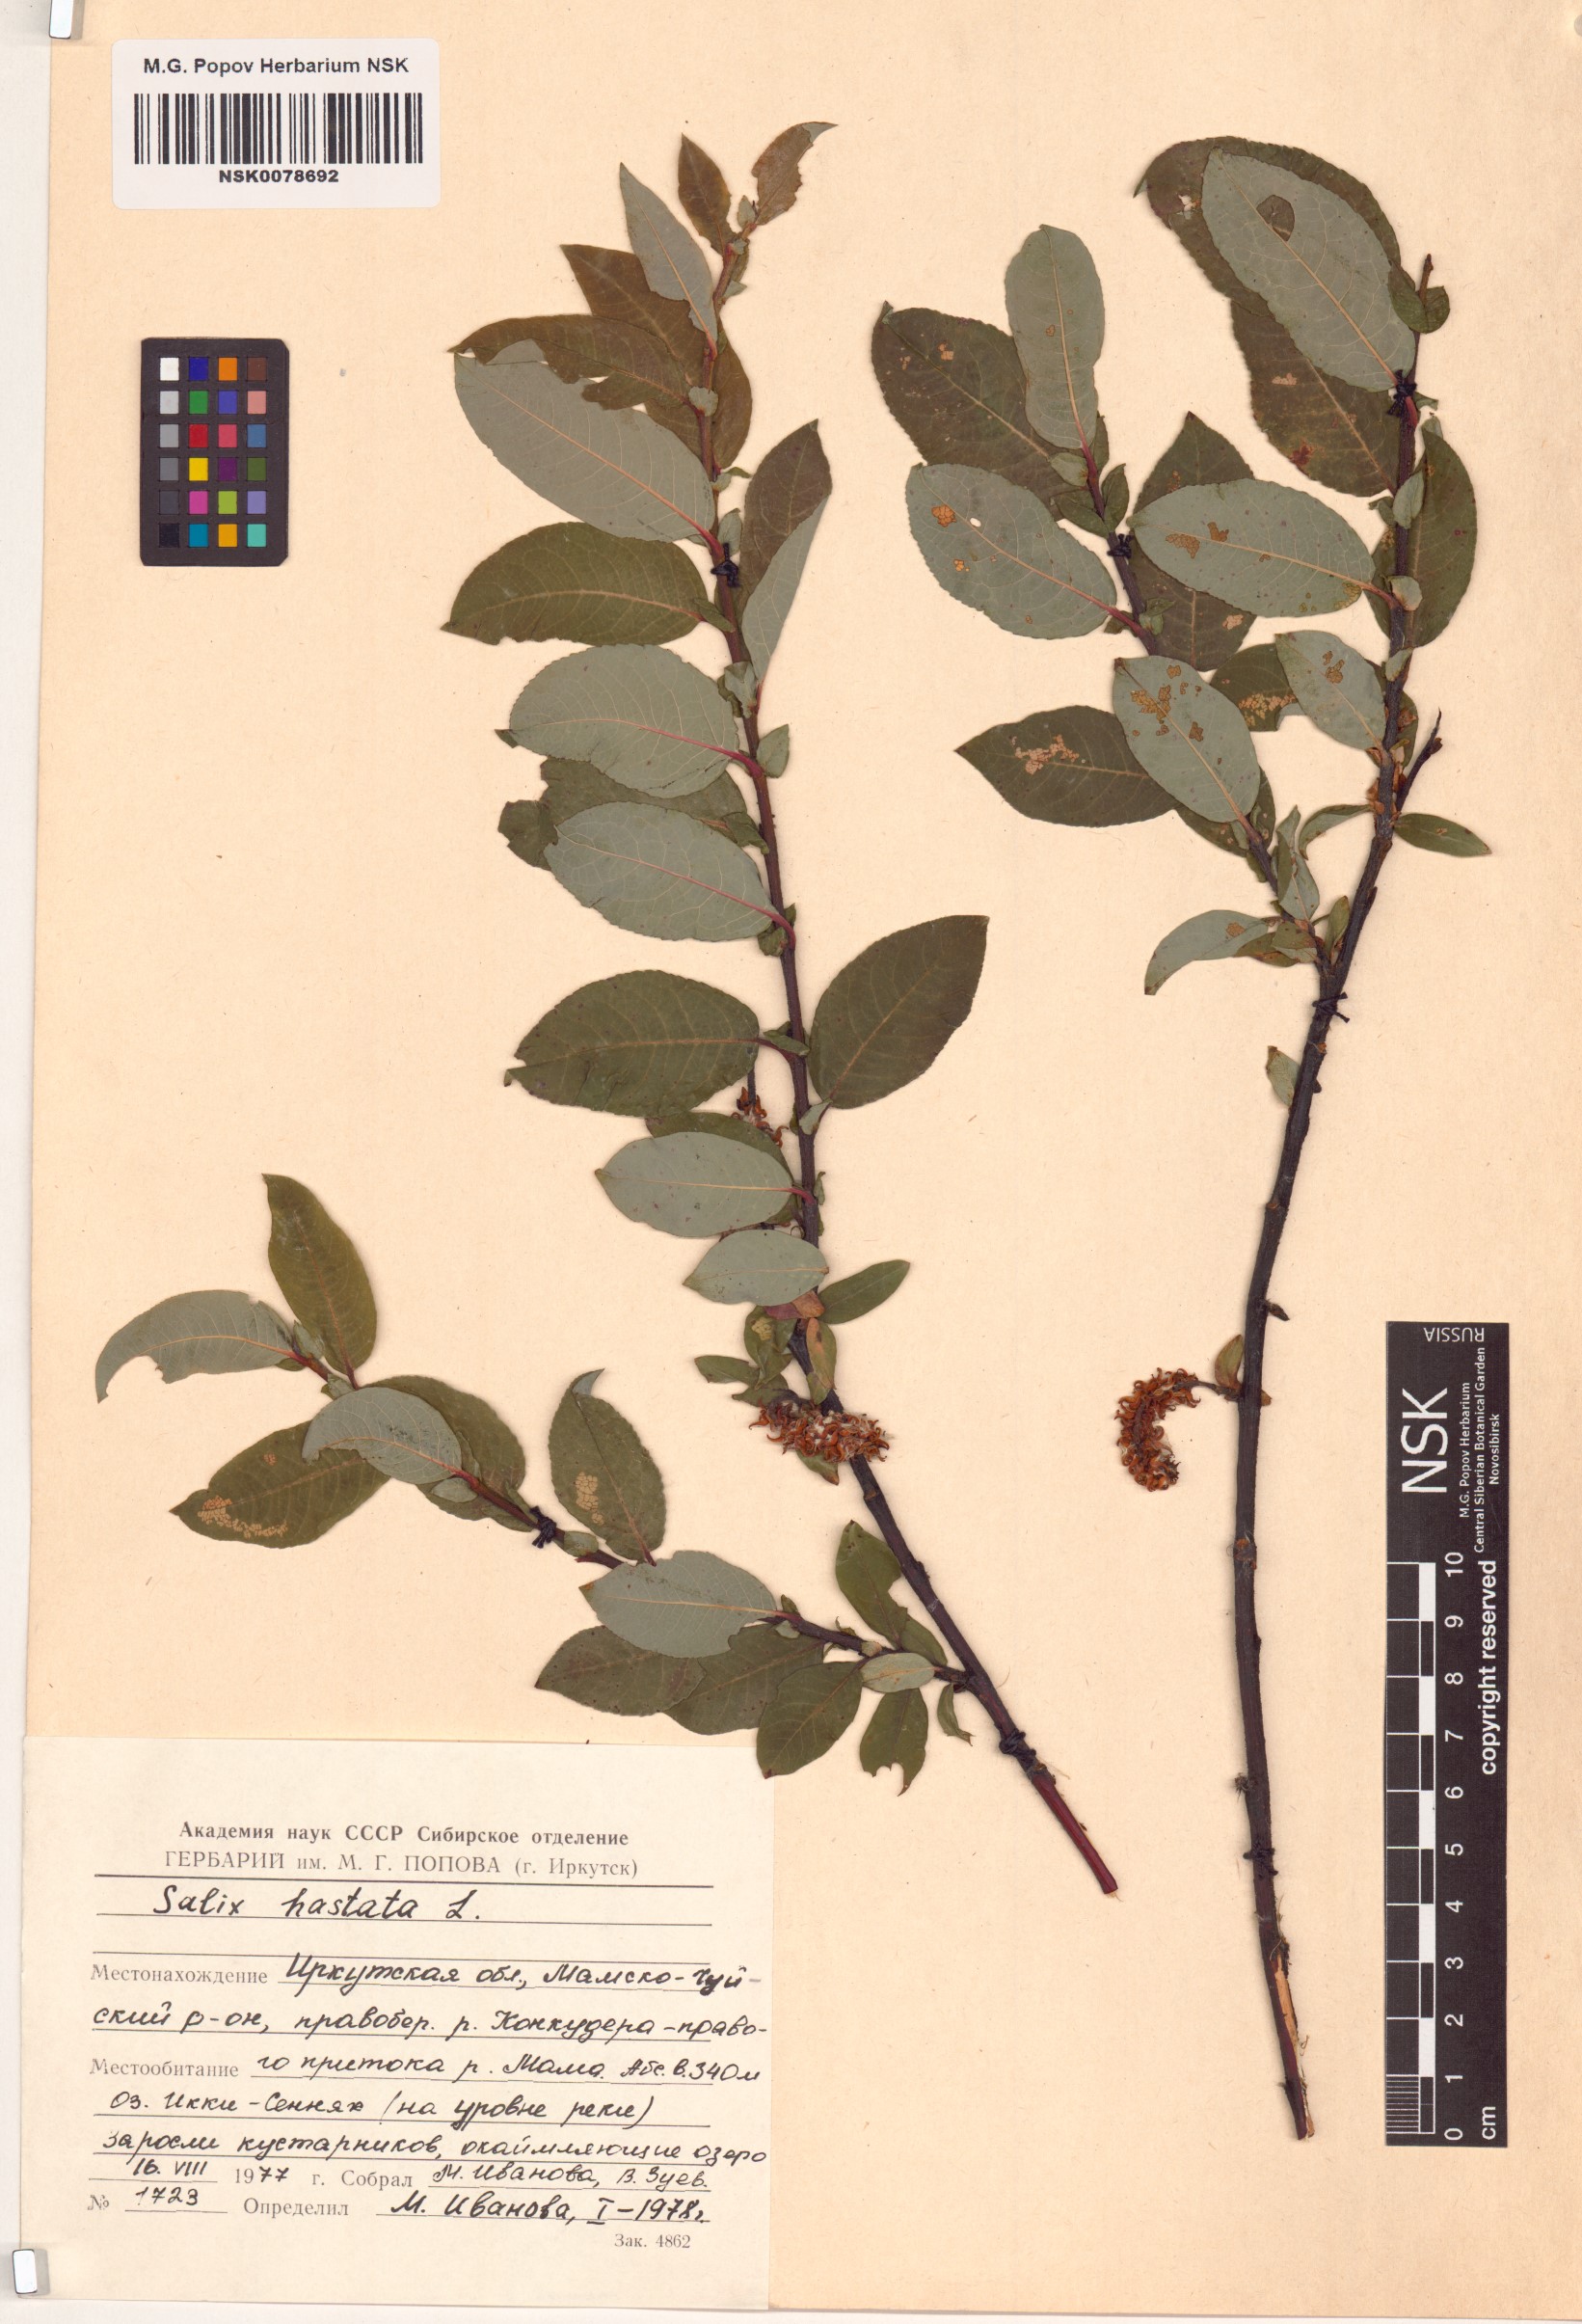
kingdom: Plantae
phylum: Tracheophyta
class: Magnoliopsida
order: Malpighiales
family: Salicaceae
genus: Salix
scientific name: Salix hastata
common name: Halberd willow
